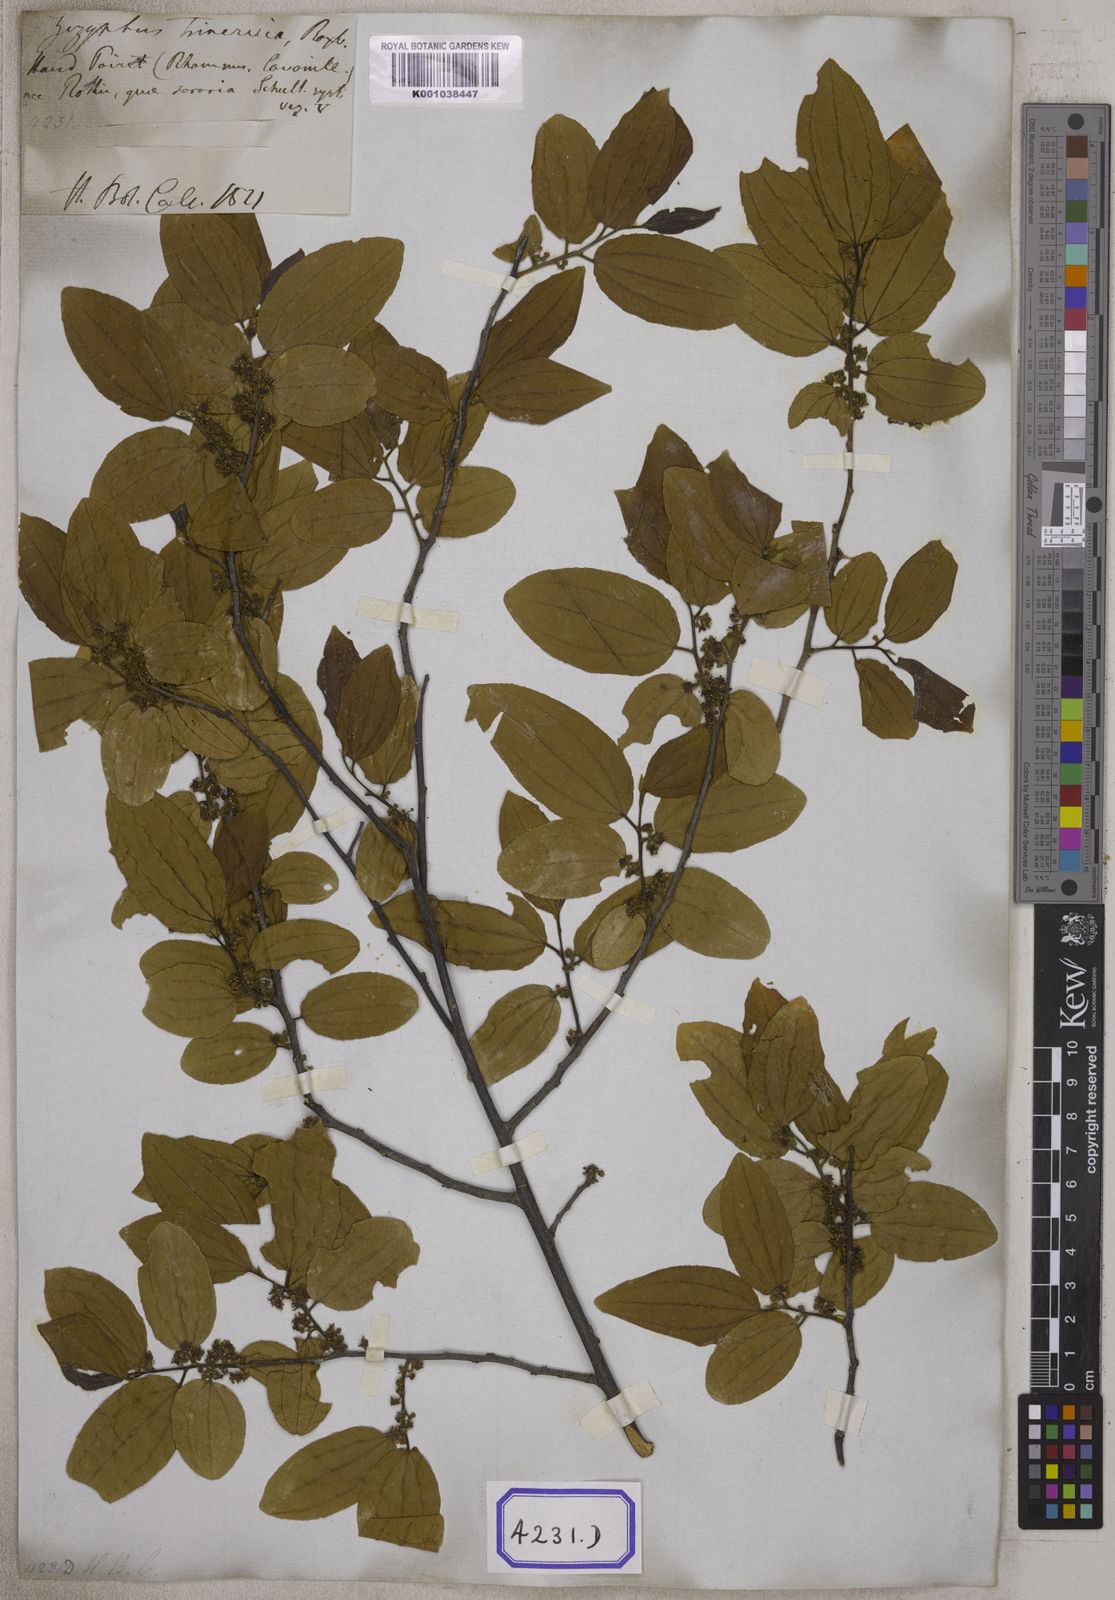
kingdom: Plantae
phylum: Tracheophyta
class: Magnoliopsida
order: Rosales
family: Rhamnaceae
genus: Ziziphus
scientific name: Ziziphus glabrata
